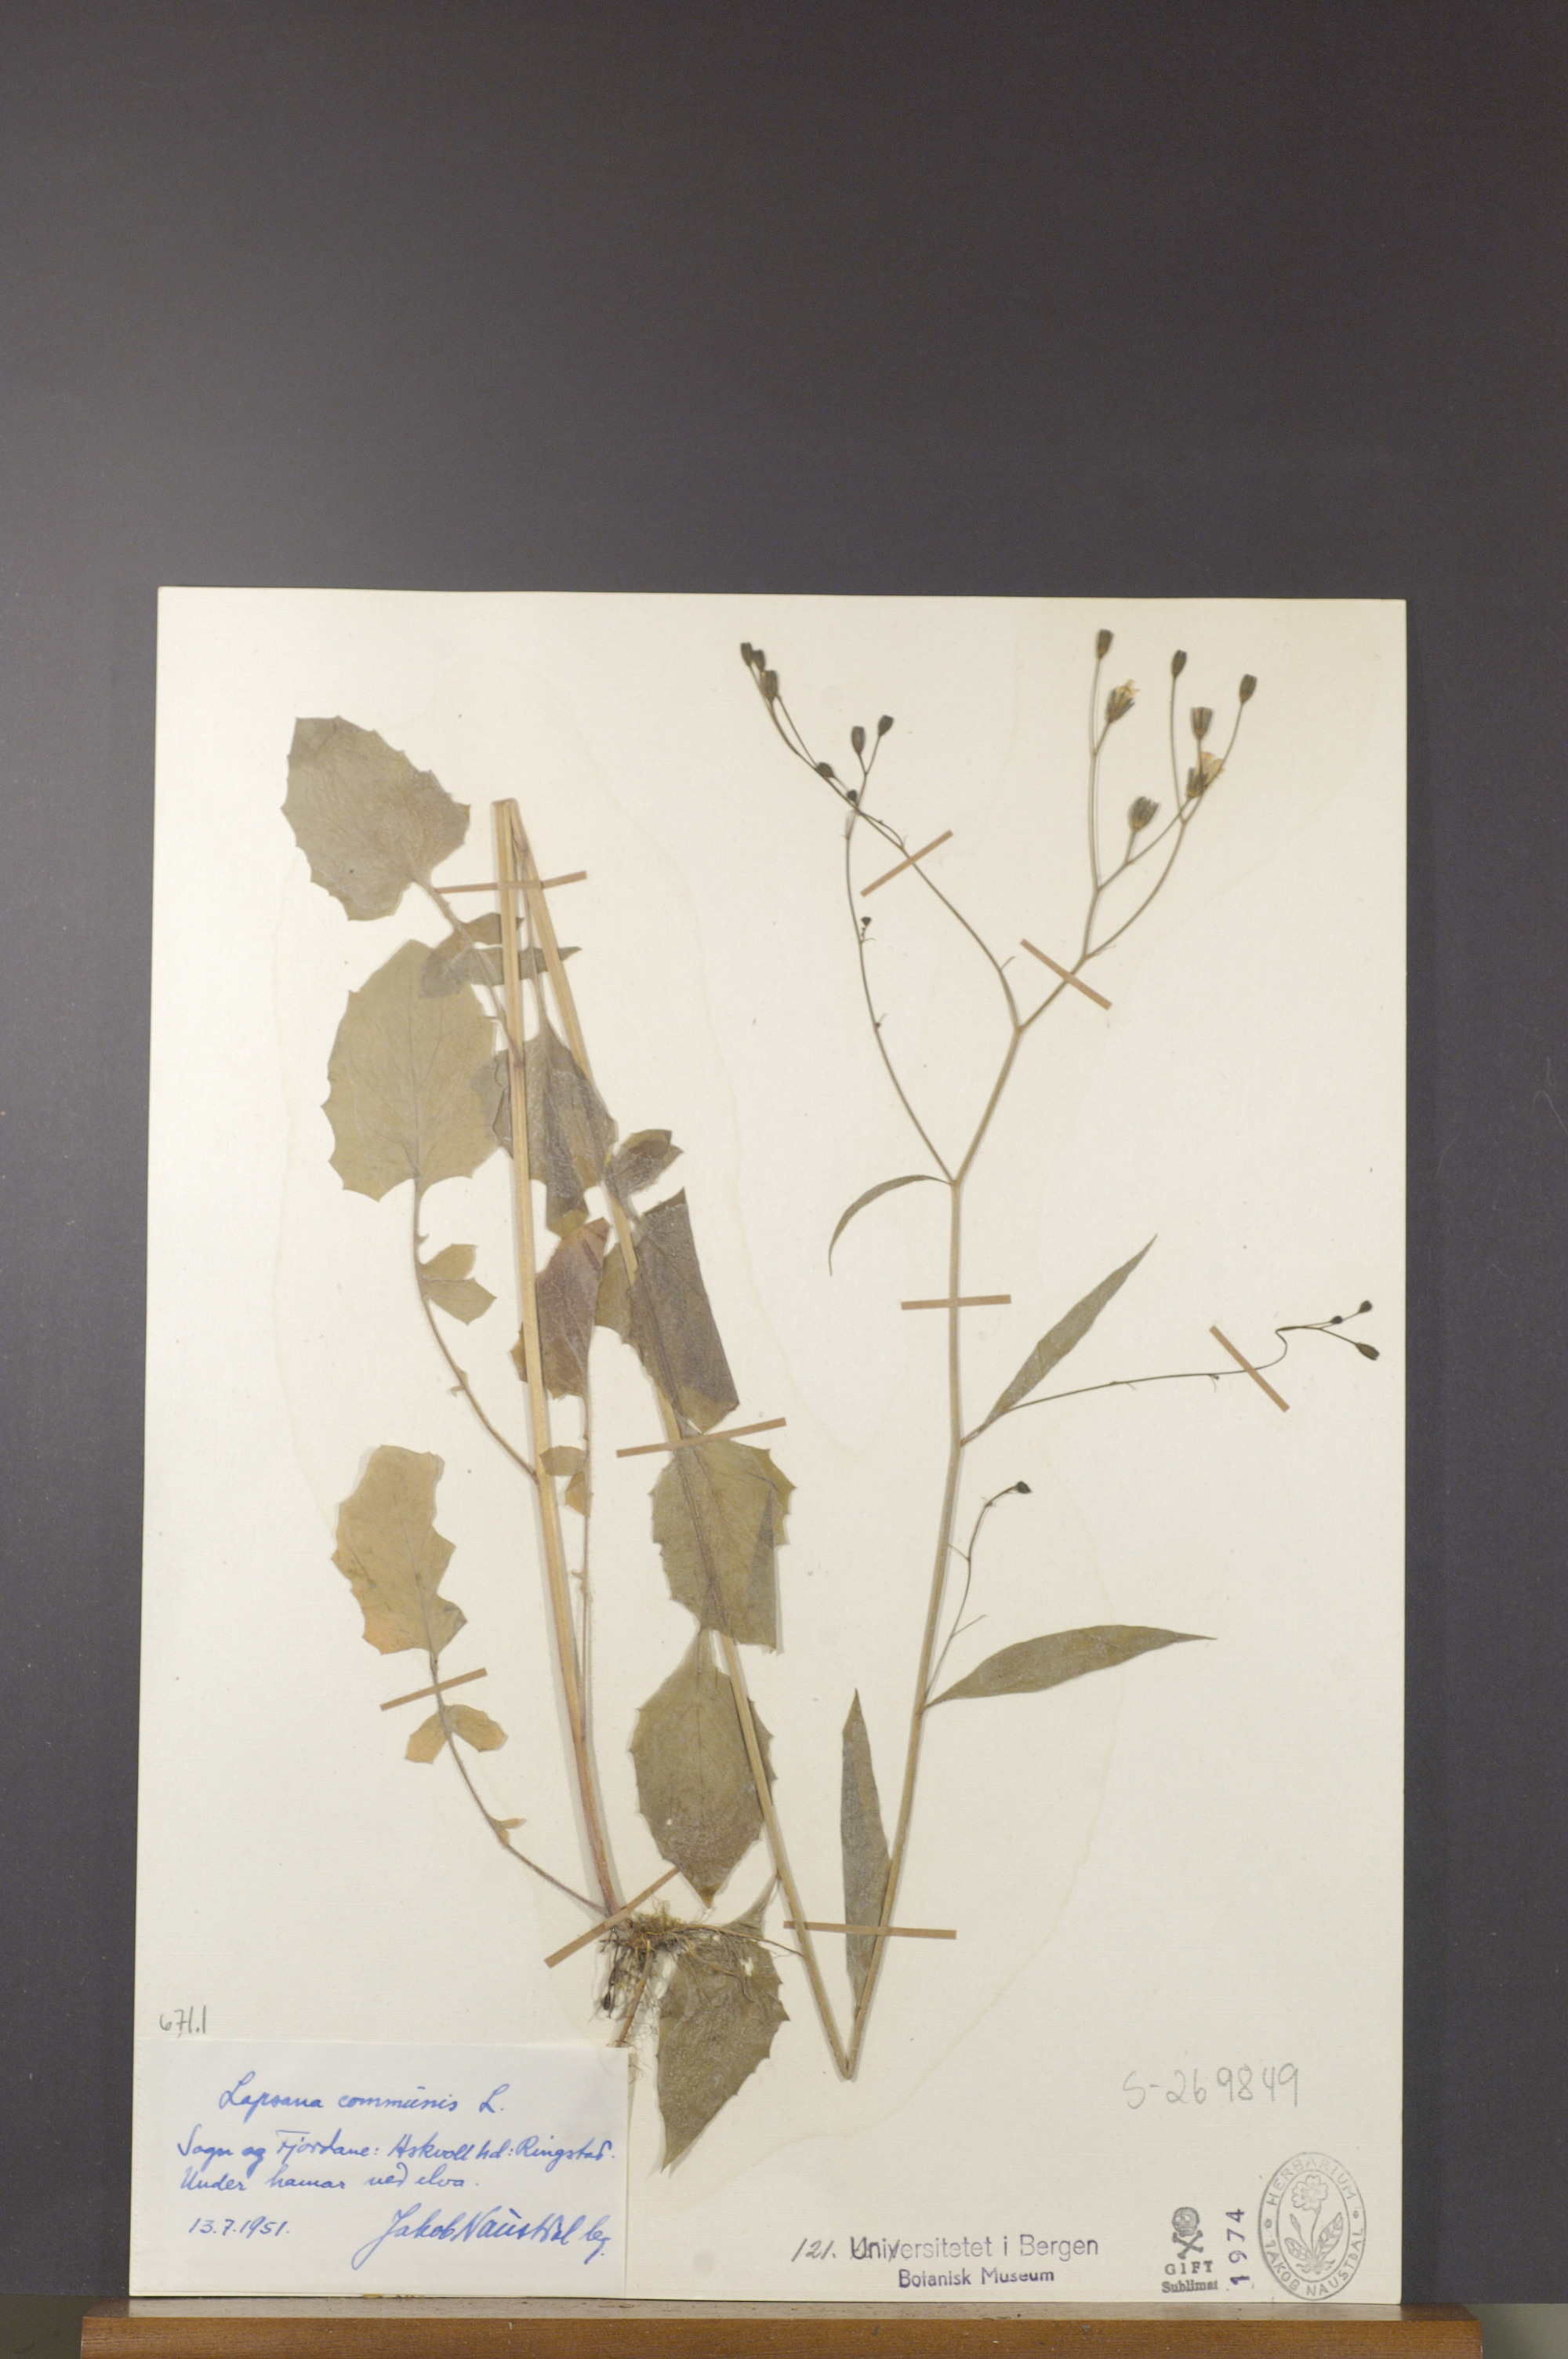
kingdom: Plantae
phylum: Tracheophyta
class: Magnoliopsida
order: Asterales
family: Asteraceae
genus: Lapsana
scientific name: Lapsana communis
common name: Nipplewort
